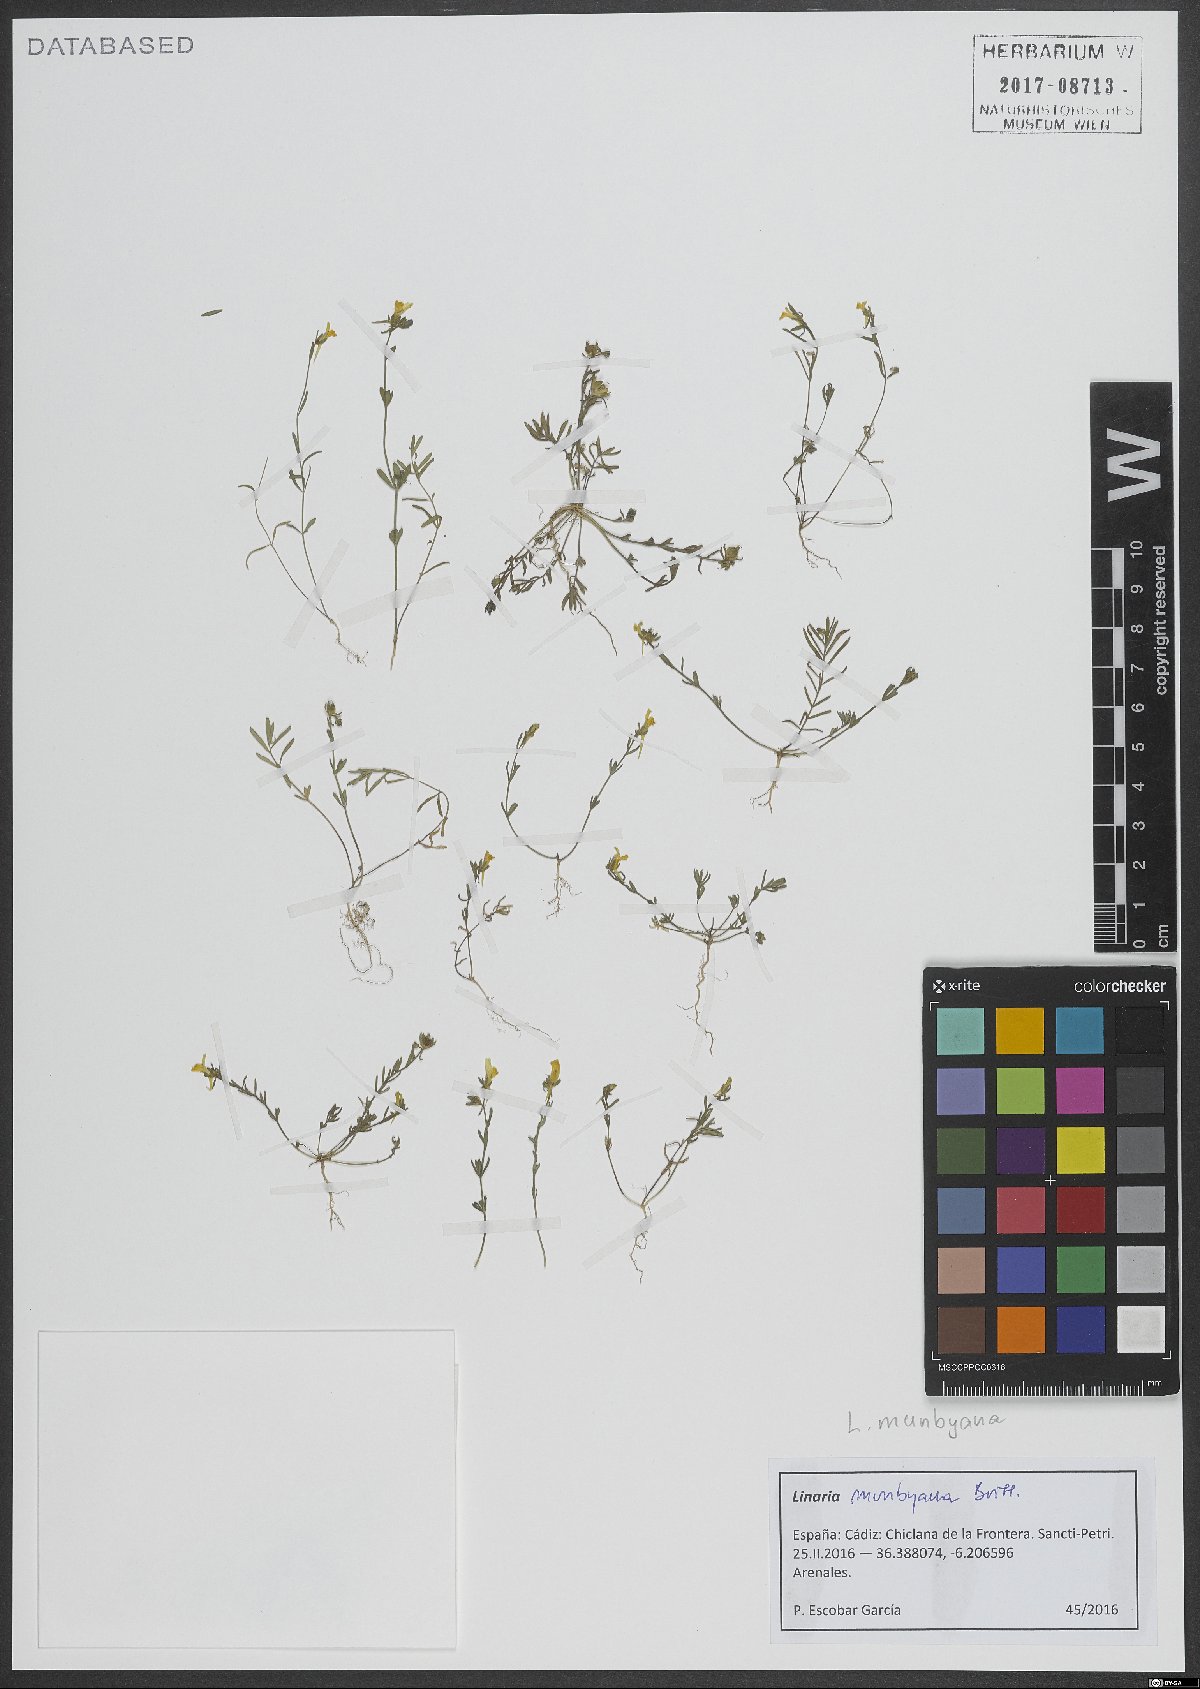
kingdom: Plantae
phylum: Tracheophyta
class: Magnoliopsida
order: Lamiales
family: Plantaginaceae
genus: Linaria
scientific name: Linaria munbyana
